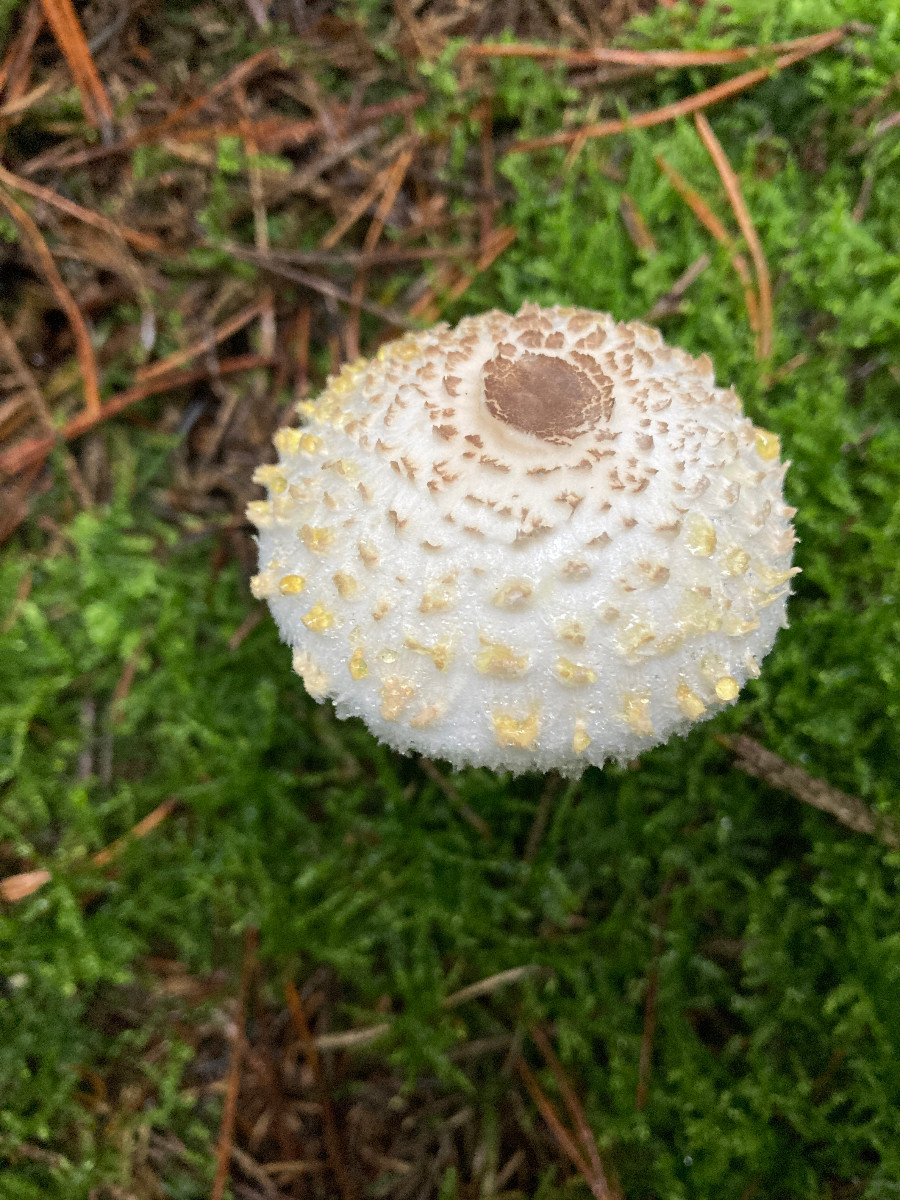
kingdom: Fungi
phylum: Basidiomycota
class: Agaricomycetes
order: Agaricales
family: Agaricaceae
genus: Leucoagaricus
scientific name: Leucoagaricus nympharum
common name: gran-silkehat
